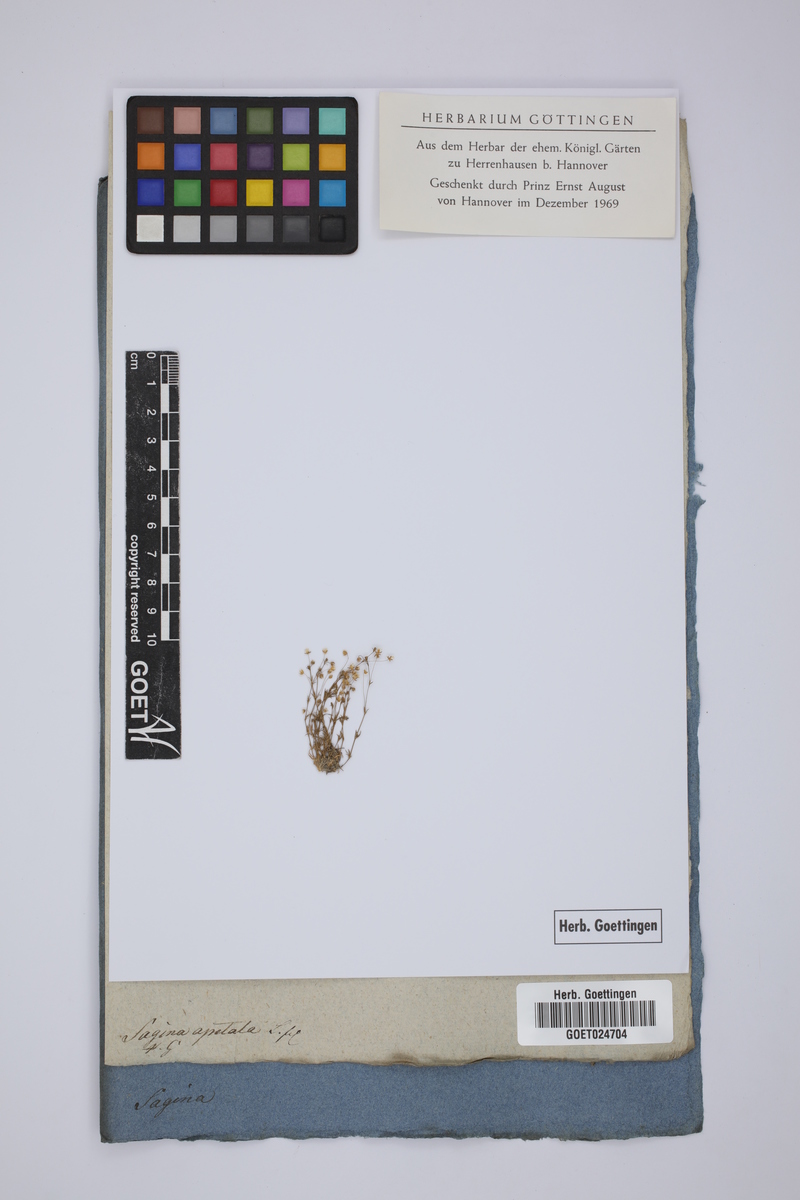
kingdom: Plantae
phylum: Tracheophyta
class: Magnoliopsida
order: Caryophyllales
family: Caryophyllaceae
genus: Sagina
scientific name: Sagina apetala
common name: Annual pearlwort
